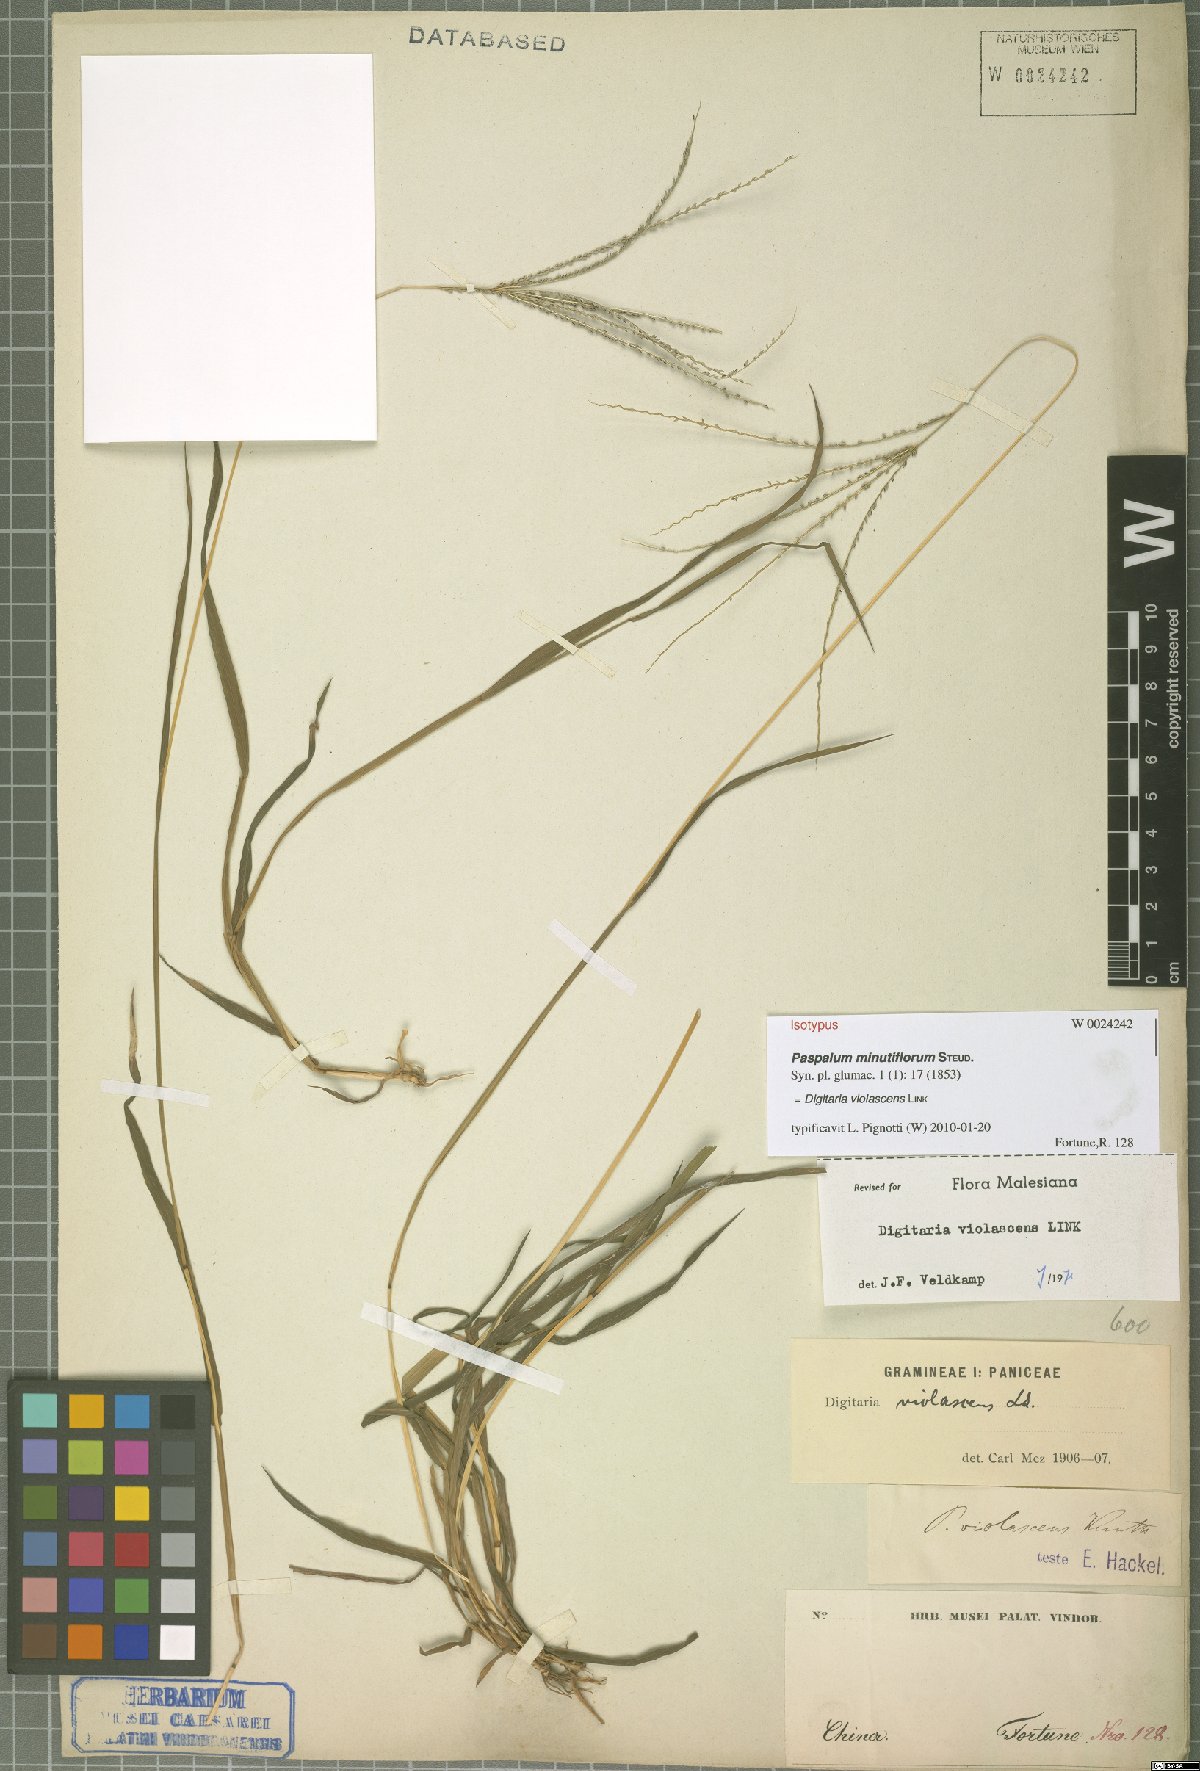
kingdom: Plantae
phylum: Tracheophyta
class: Liliopsida
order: Poales
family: Poaceae
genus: Digitaria
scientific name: Digitaria violascens
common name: Violet crabgrass
